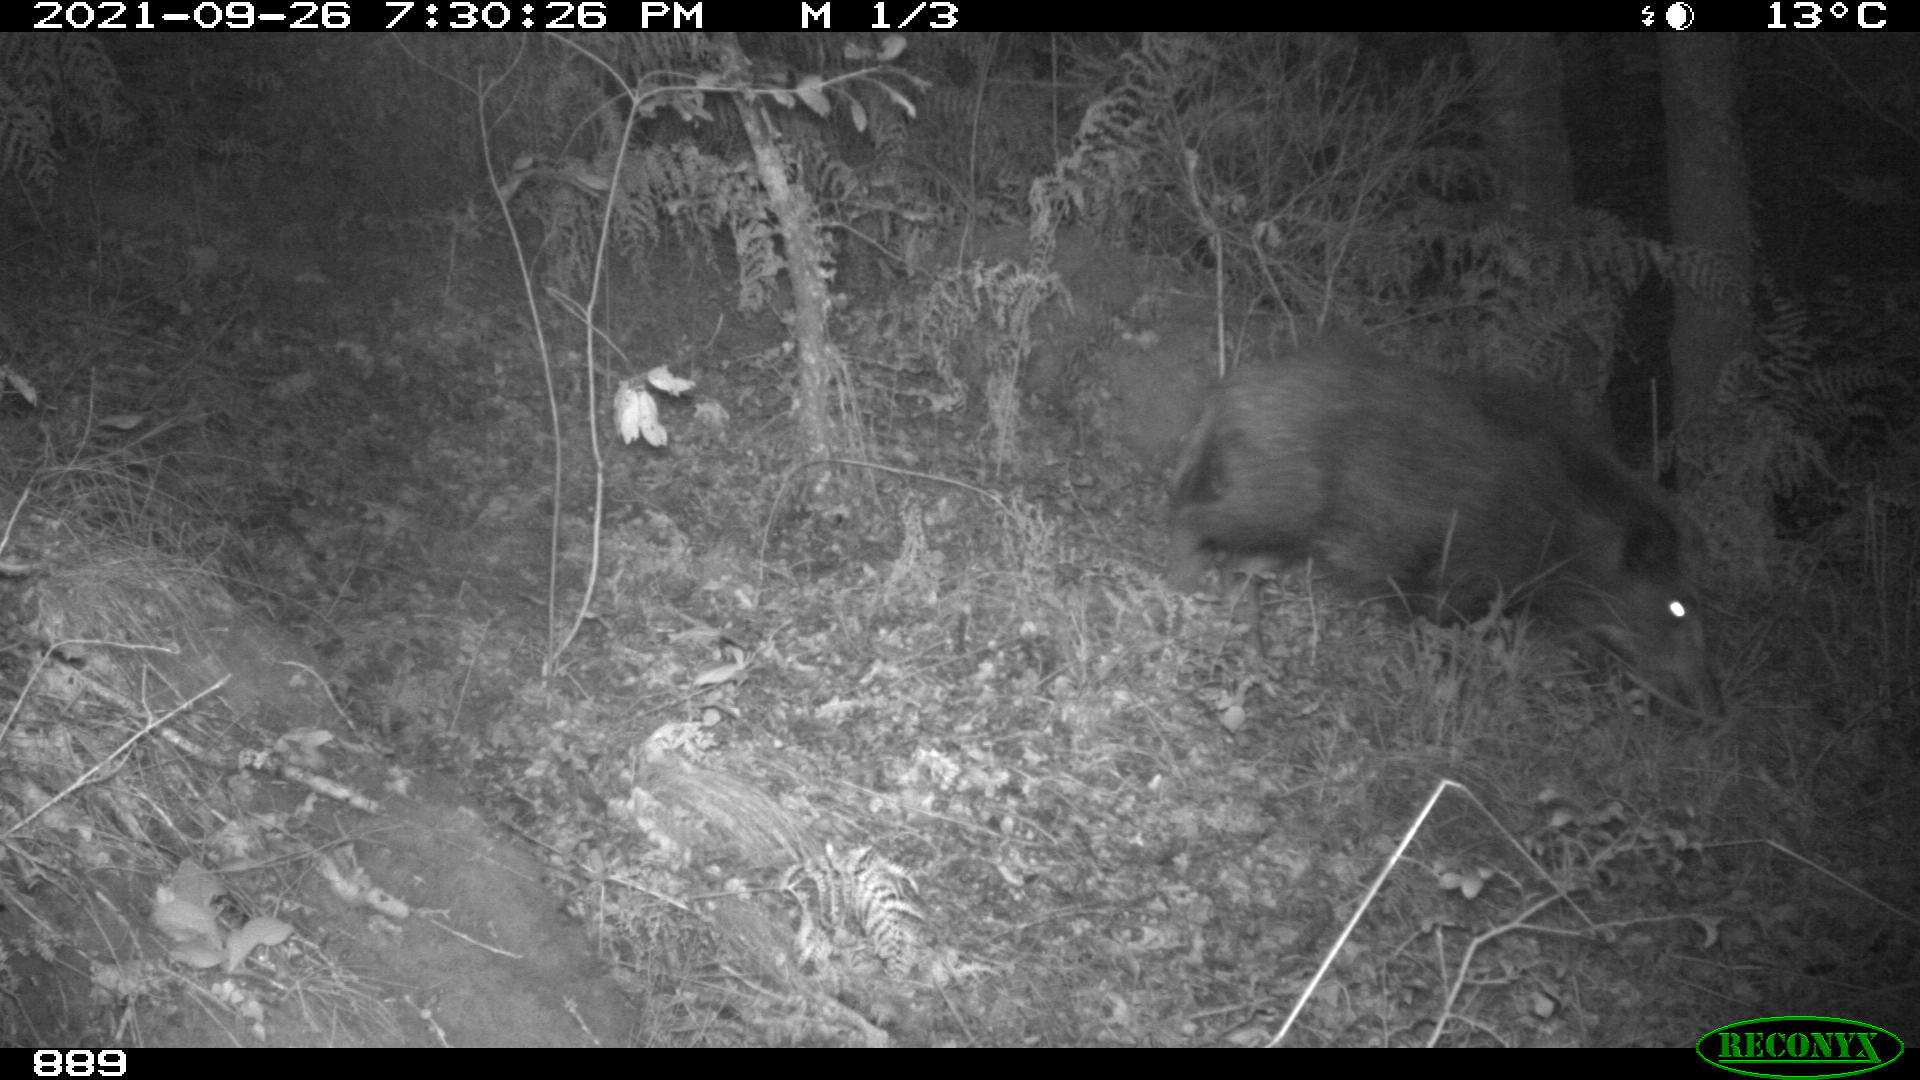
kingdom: Animalia
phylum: Chordata
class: Mammalia
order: Artiodactyla
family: Suidae
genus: Sus
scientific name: Sus scrofa
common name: Wild boar
